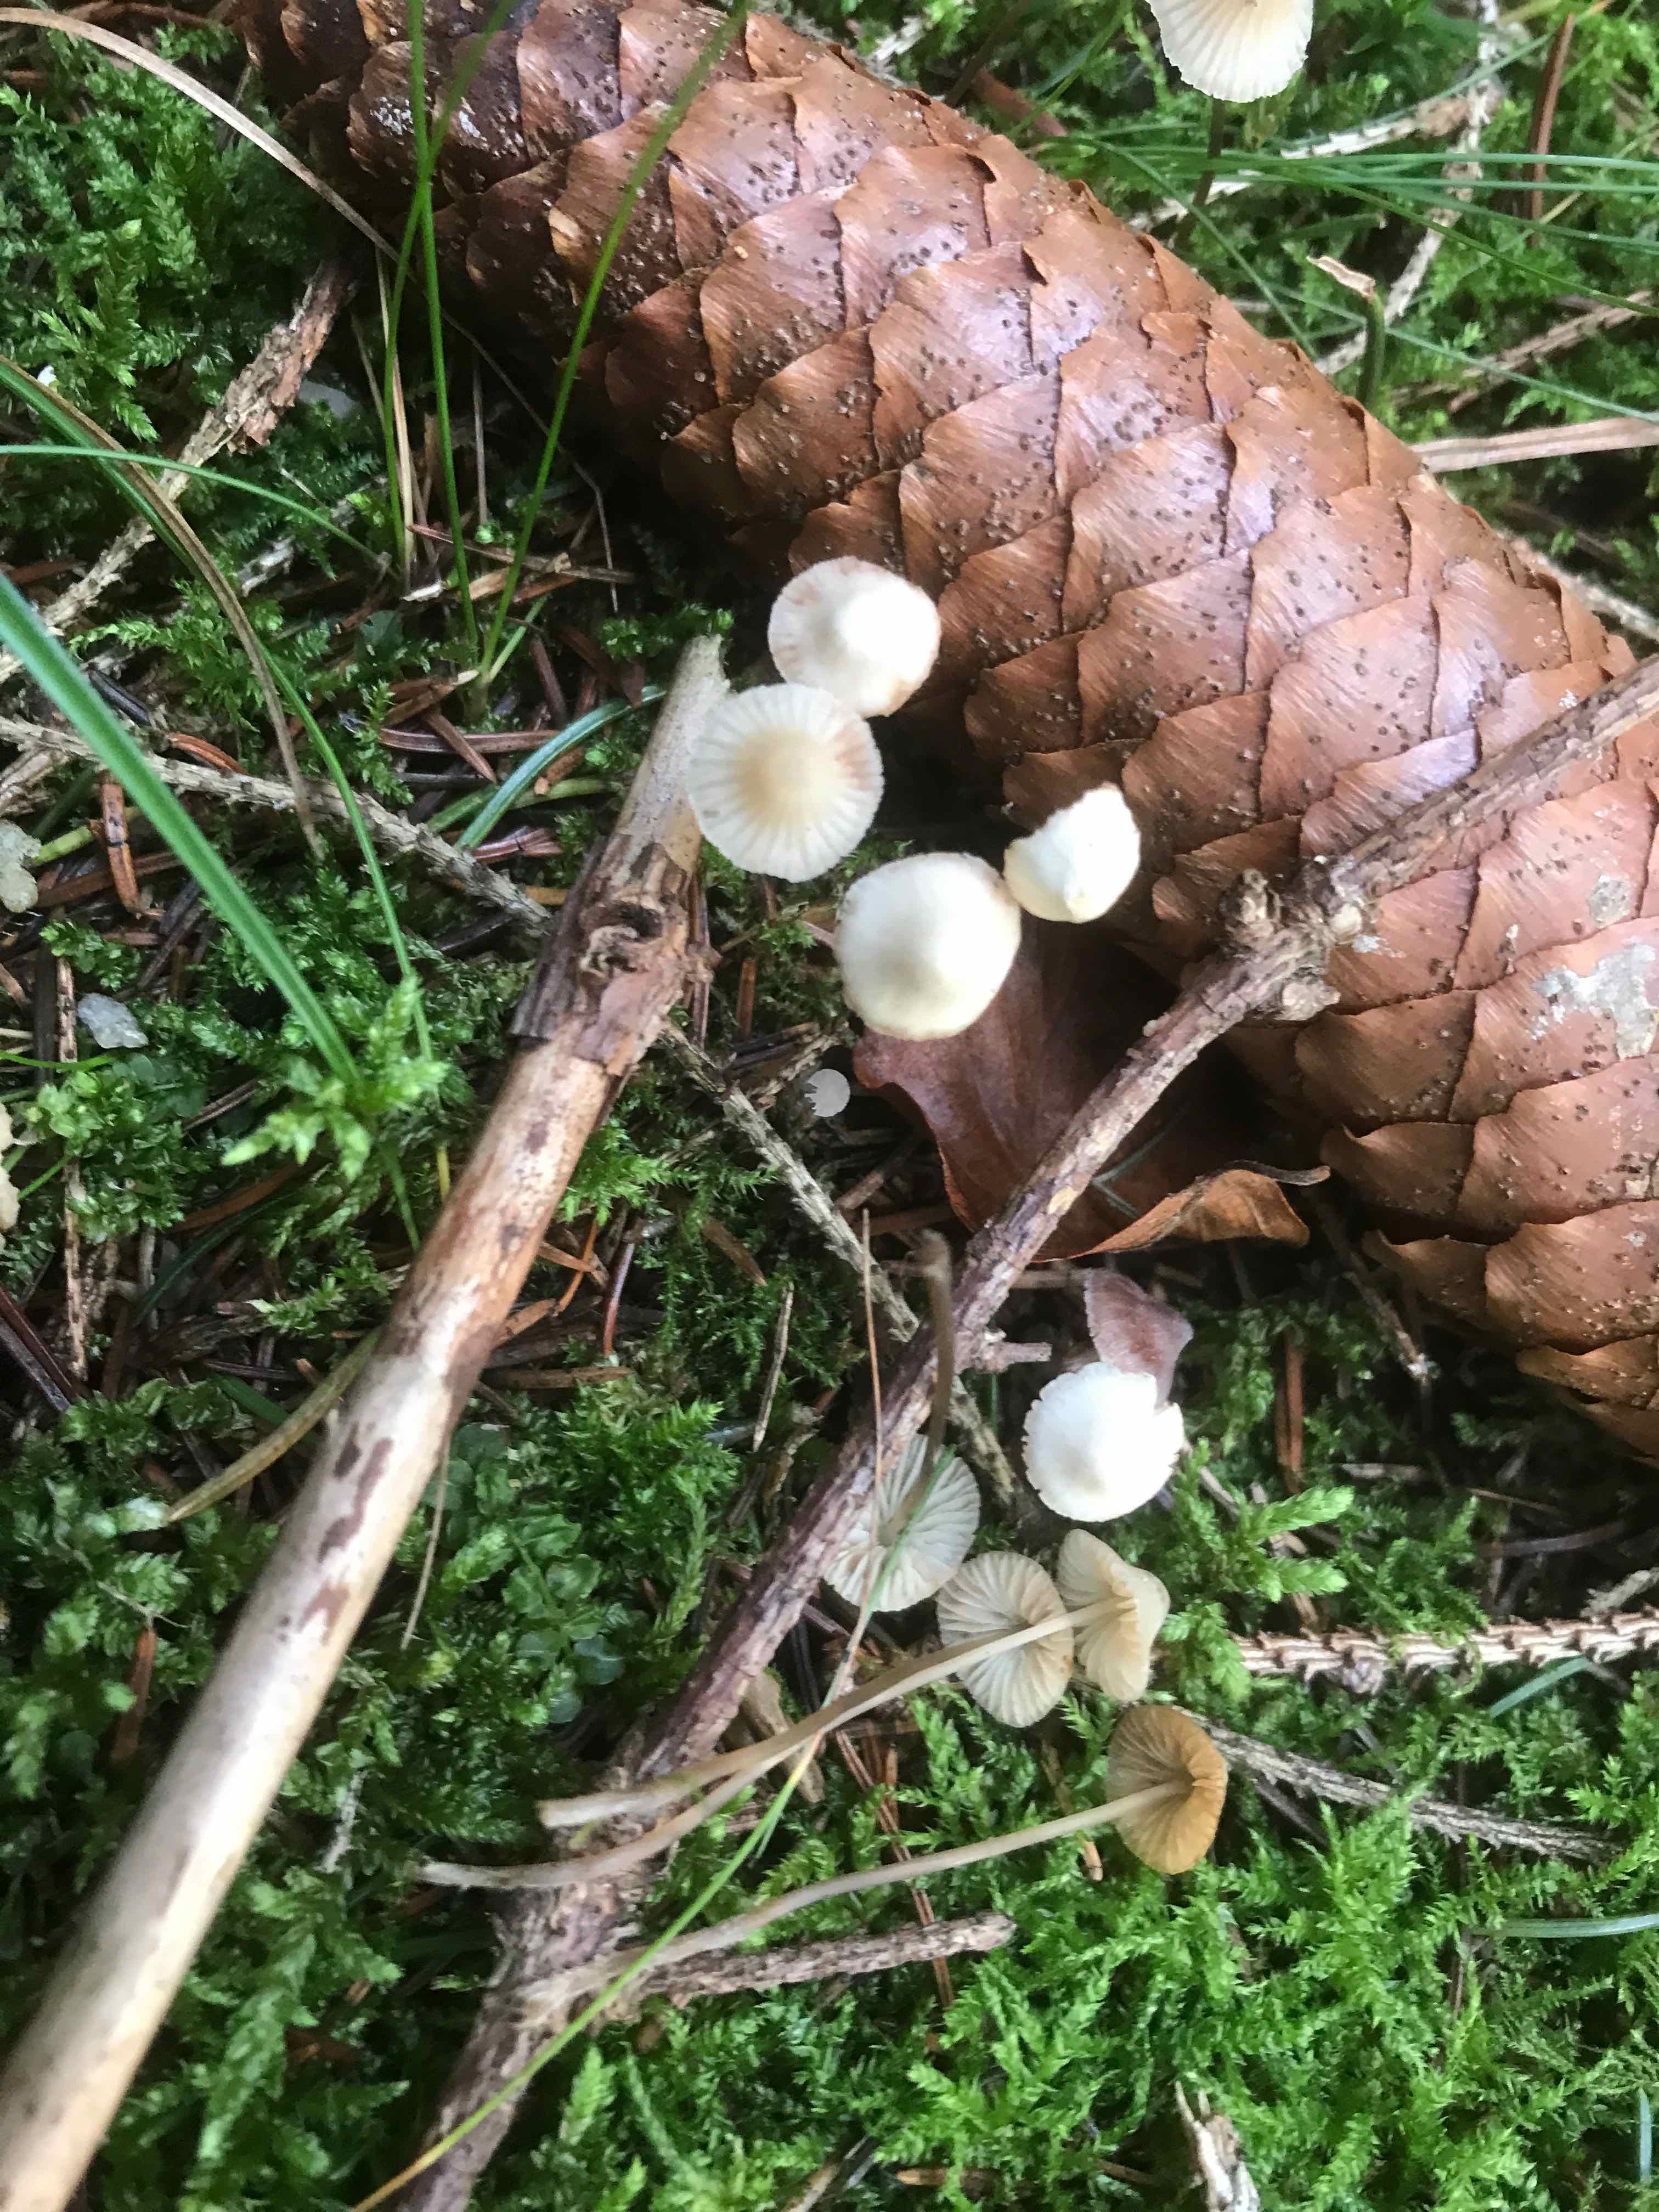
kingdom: Fungi
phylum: Basidiomycota
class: Agaricomycetes
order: Agaricales
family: Mycenaceae
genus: Mycena
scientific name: Mycena
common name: huesvamp
